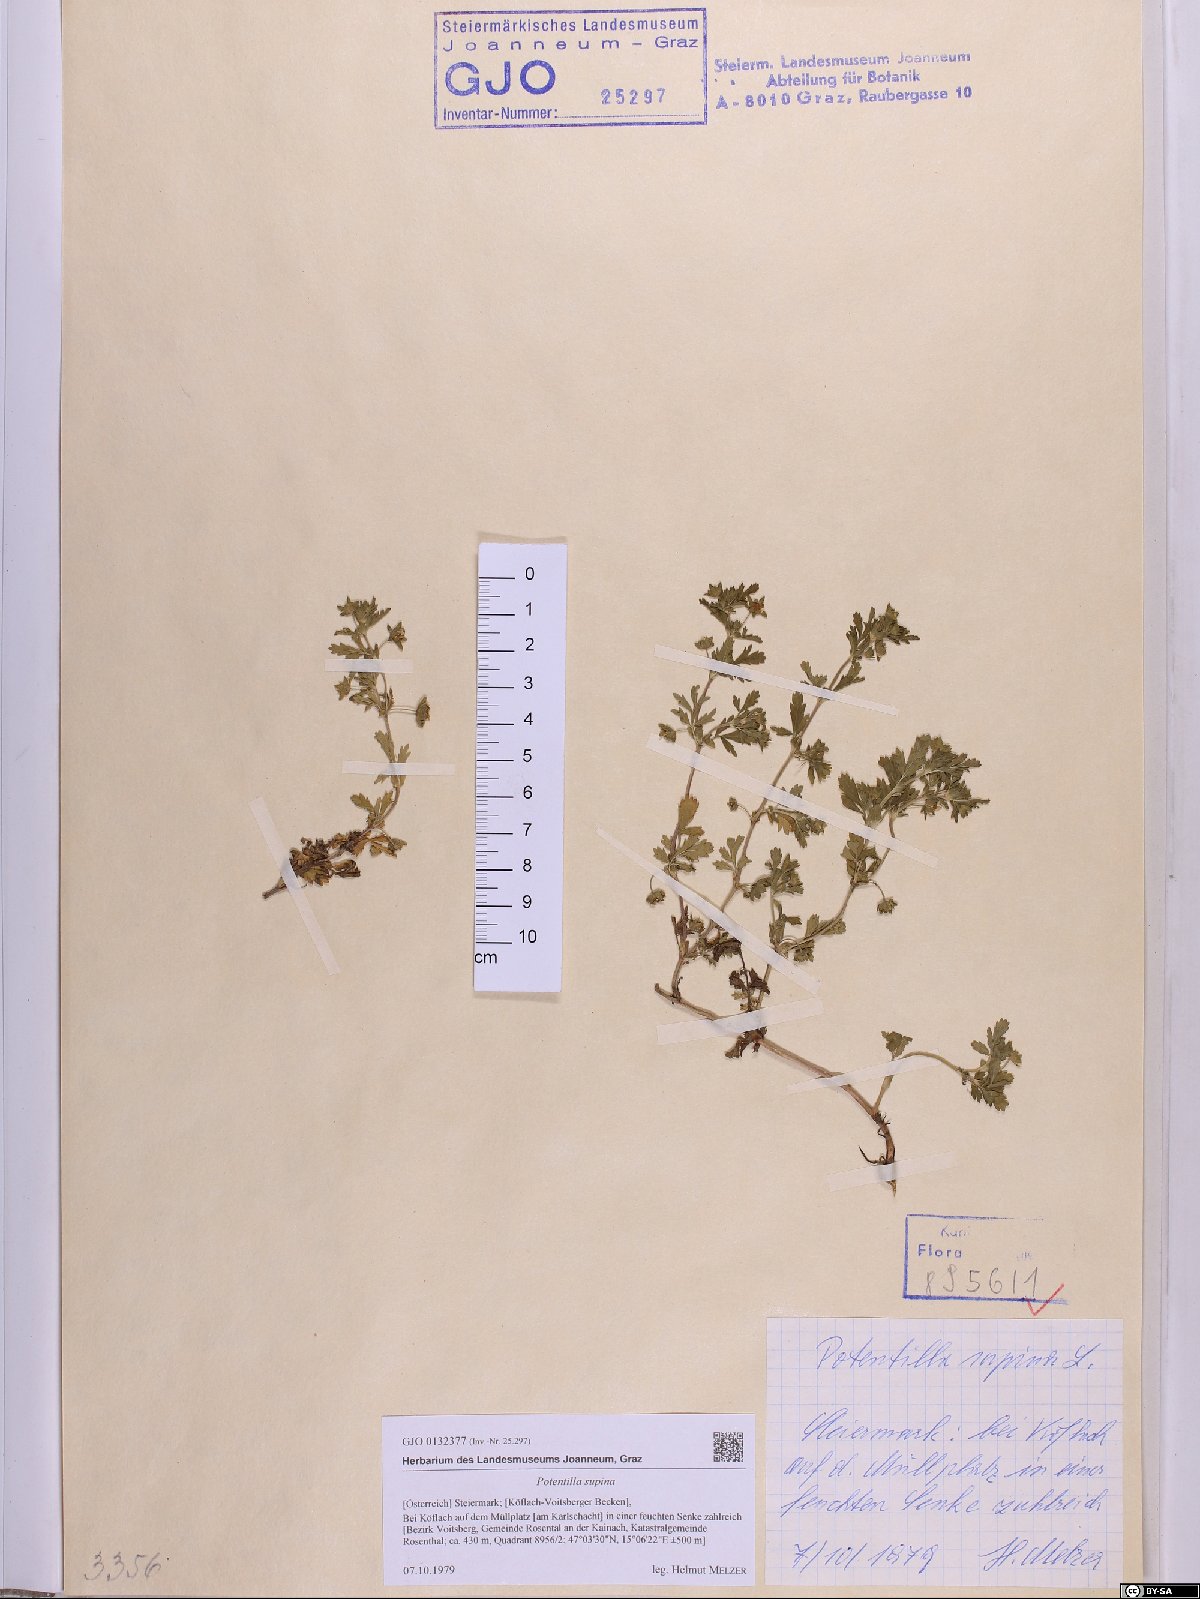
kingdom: Plantae
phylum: Tracheophyta
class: Magnoliopsida
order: Rosales
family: Rosaceae
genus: Potentilla
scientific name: Potentilla supina
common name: Prostrate cinquefoil
